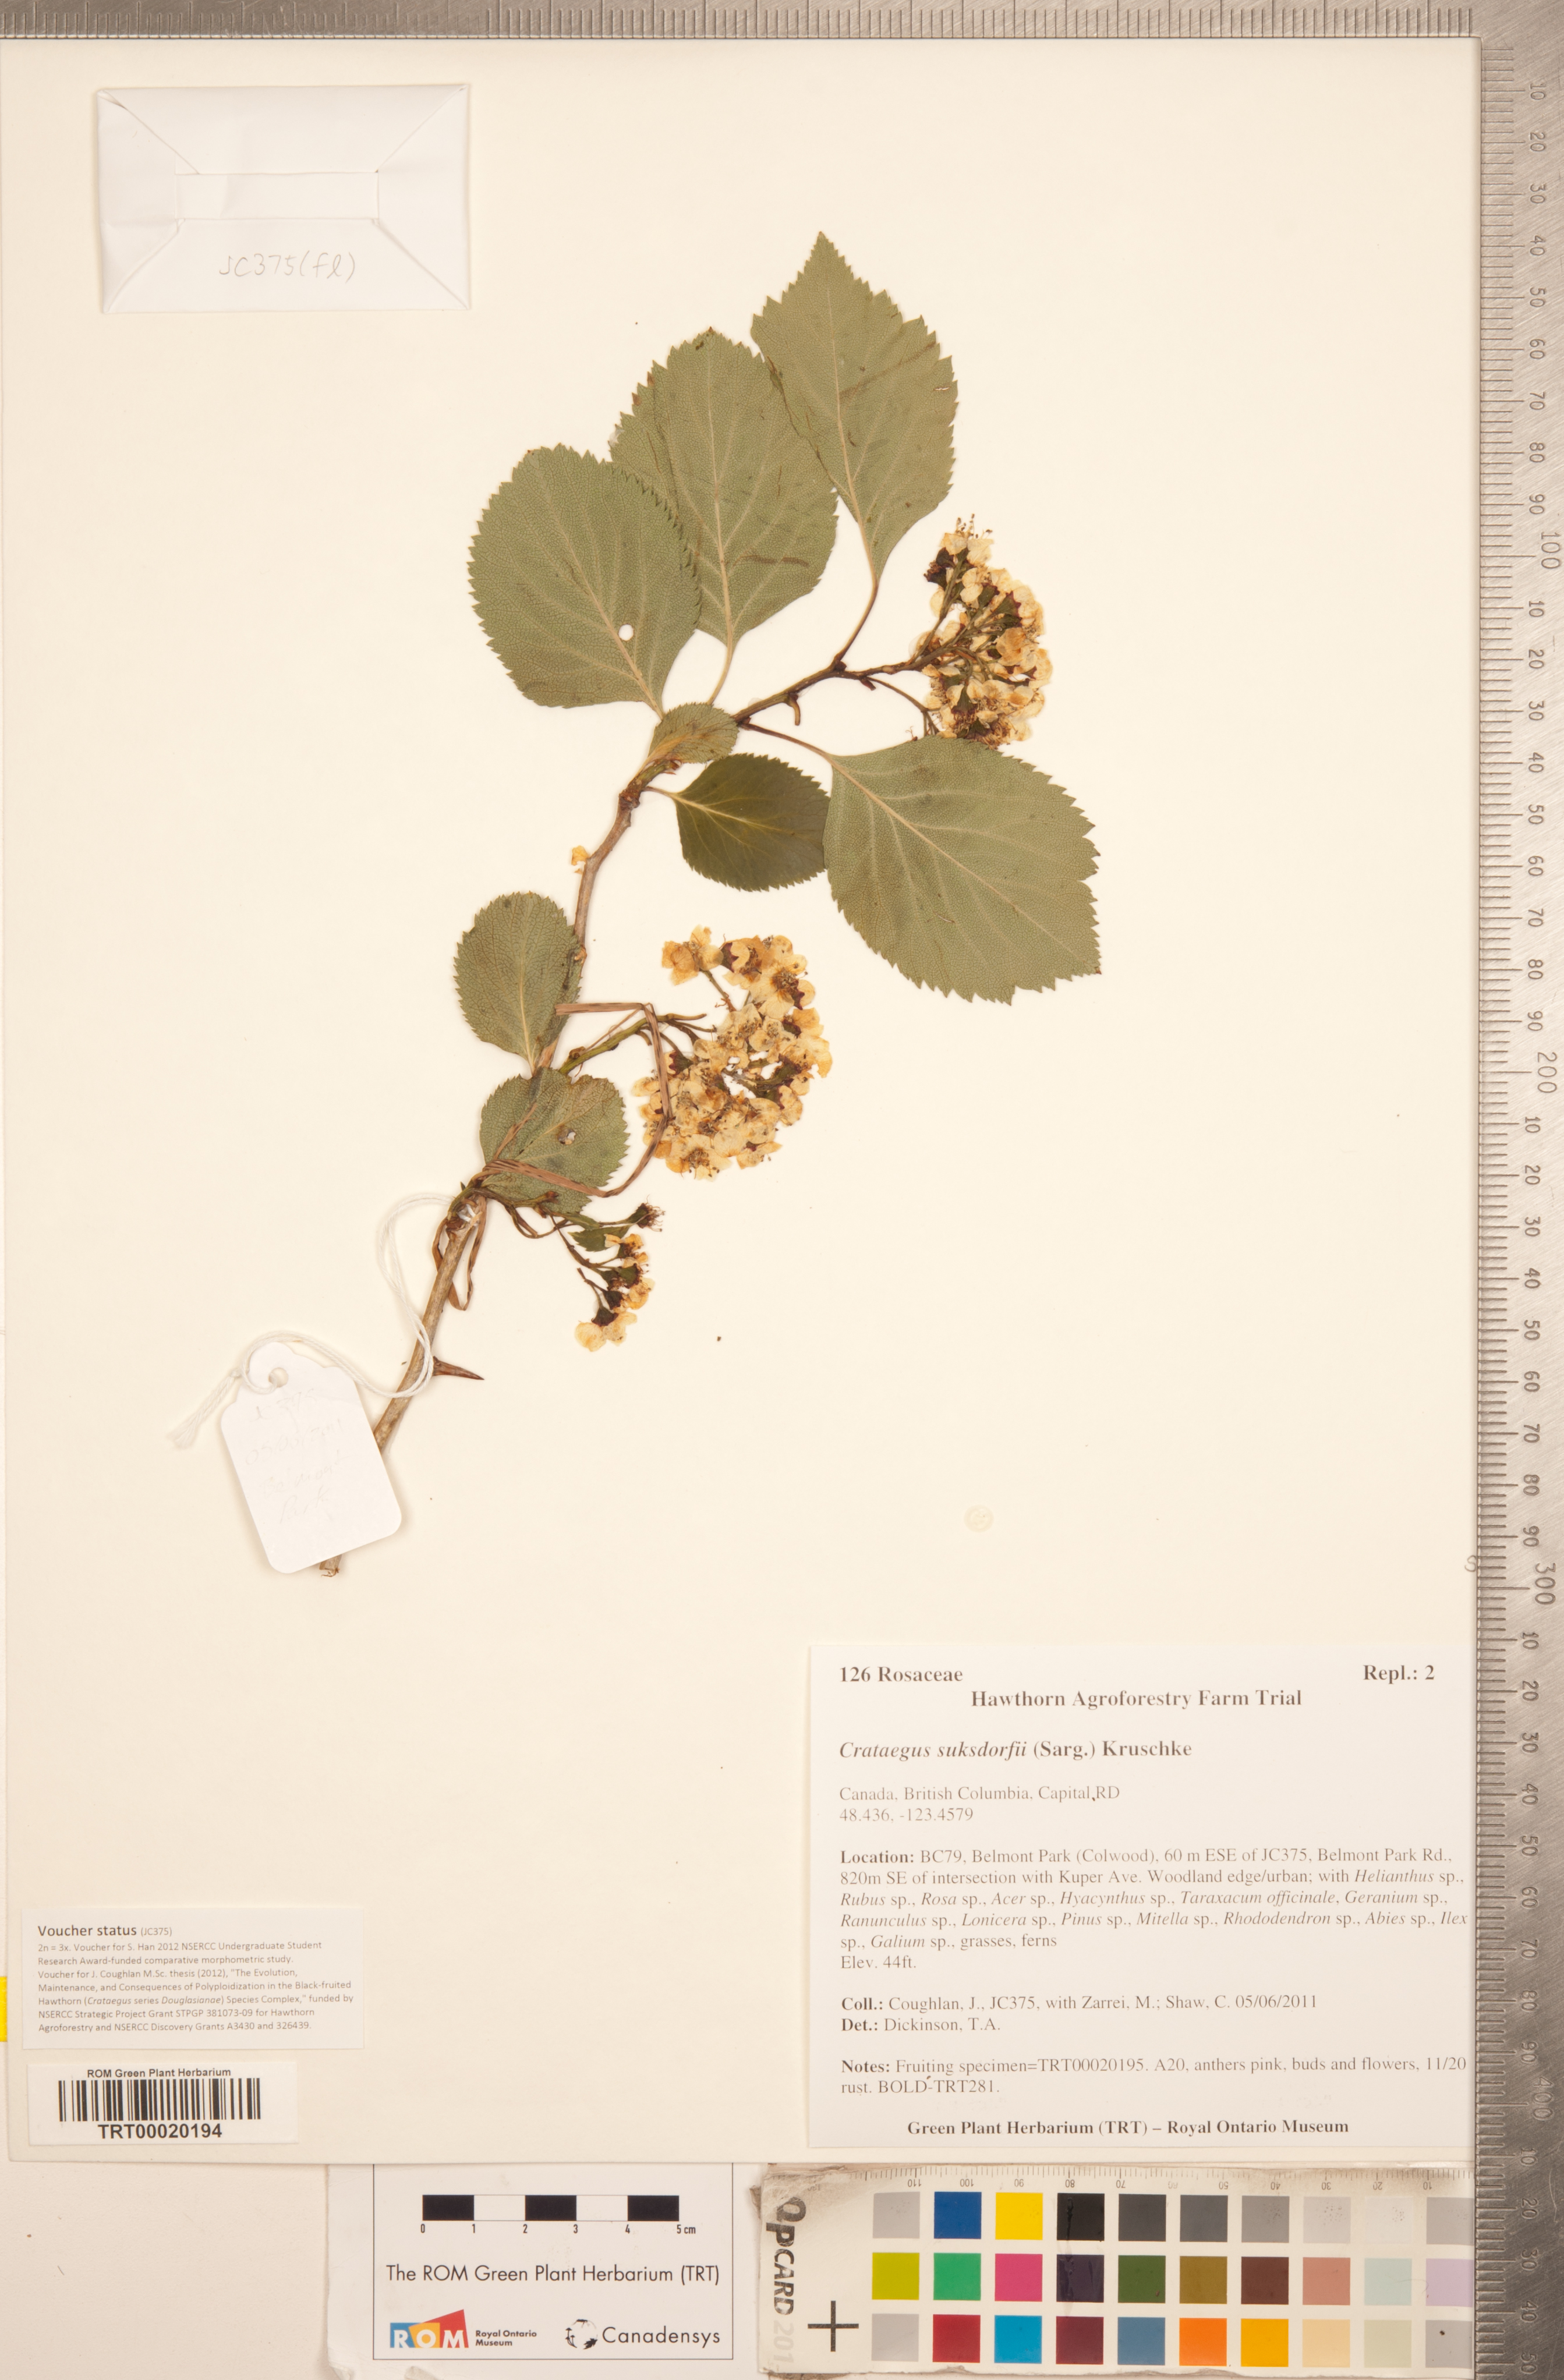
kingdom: Plantae
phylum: Tracheophyta
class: Magnoliopsida
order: Rosales
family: Rosaceae
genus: Crataegus
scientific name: Crataegus gaylussacia
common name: Huckleberry hawthorn
